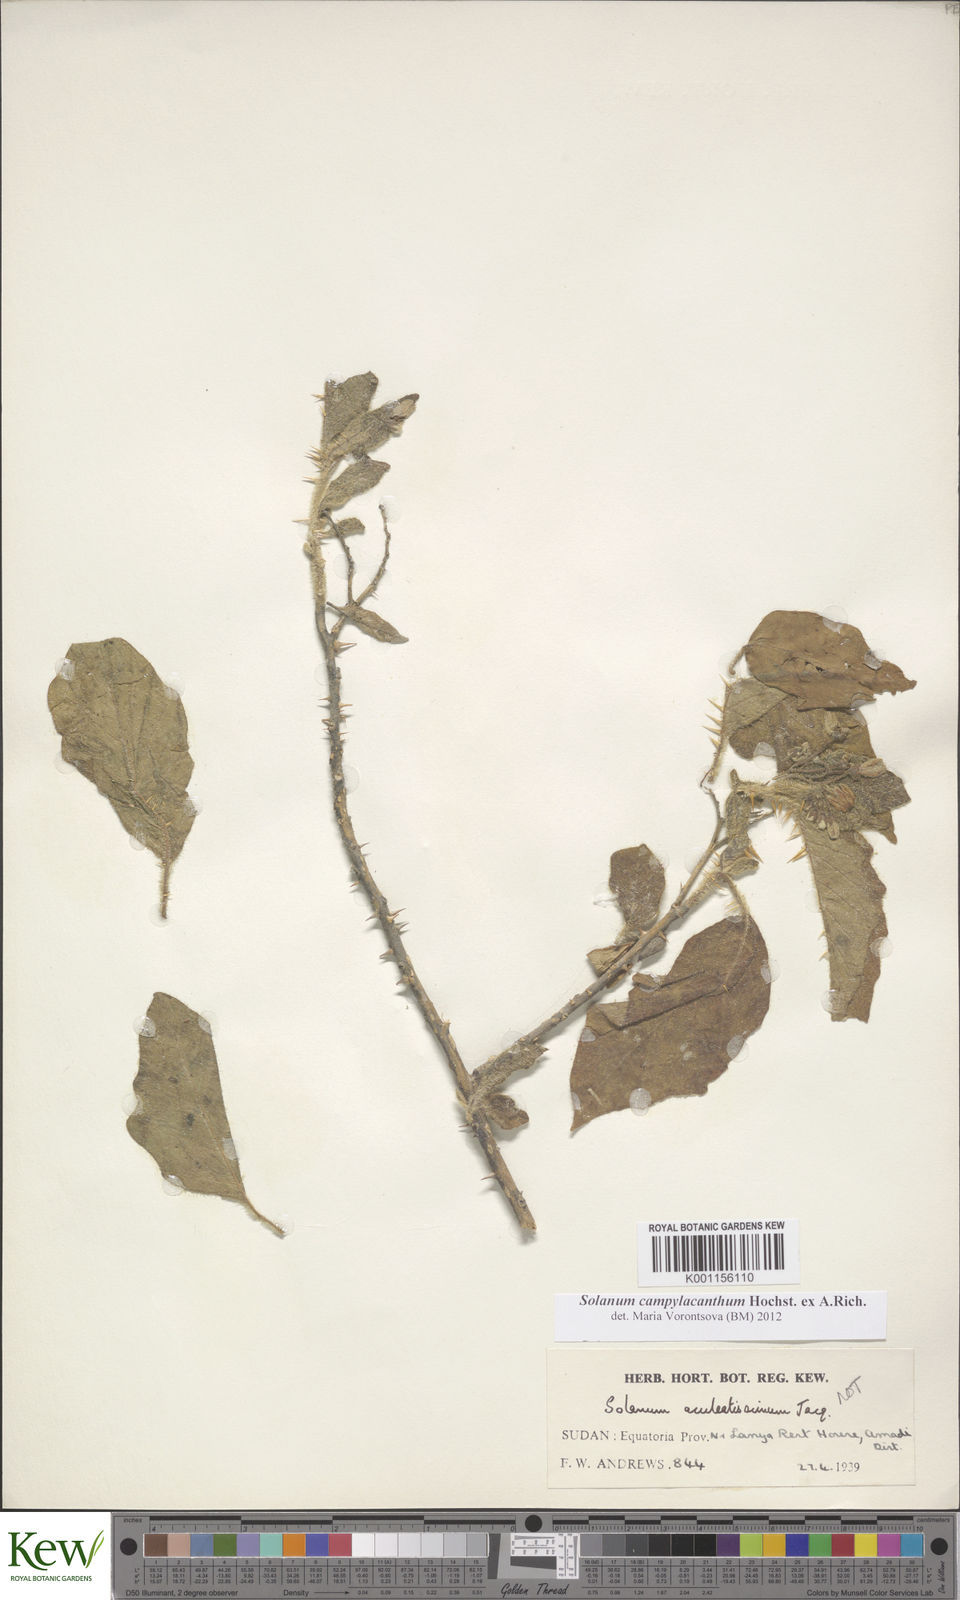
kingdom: Plantae
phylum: Tracheophyta
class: Magnoliopsida
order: Solanales
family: Solanaceae
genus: Solanum
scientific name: Solanum campylacanthum
